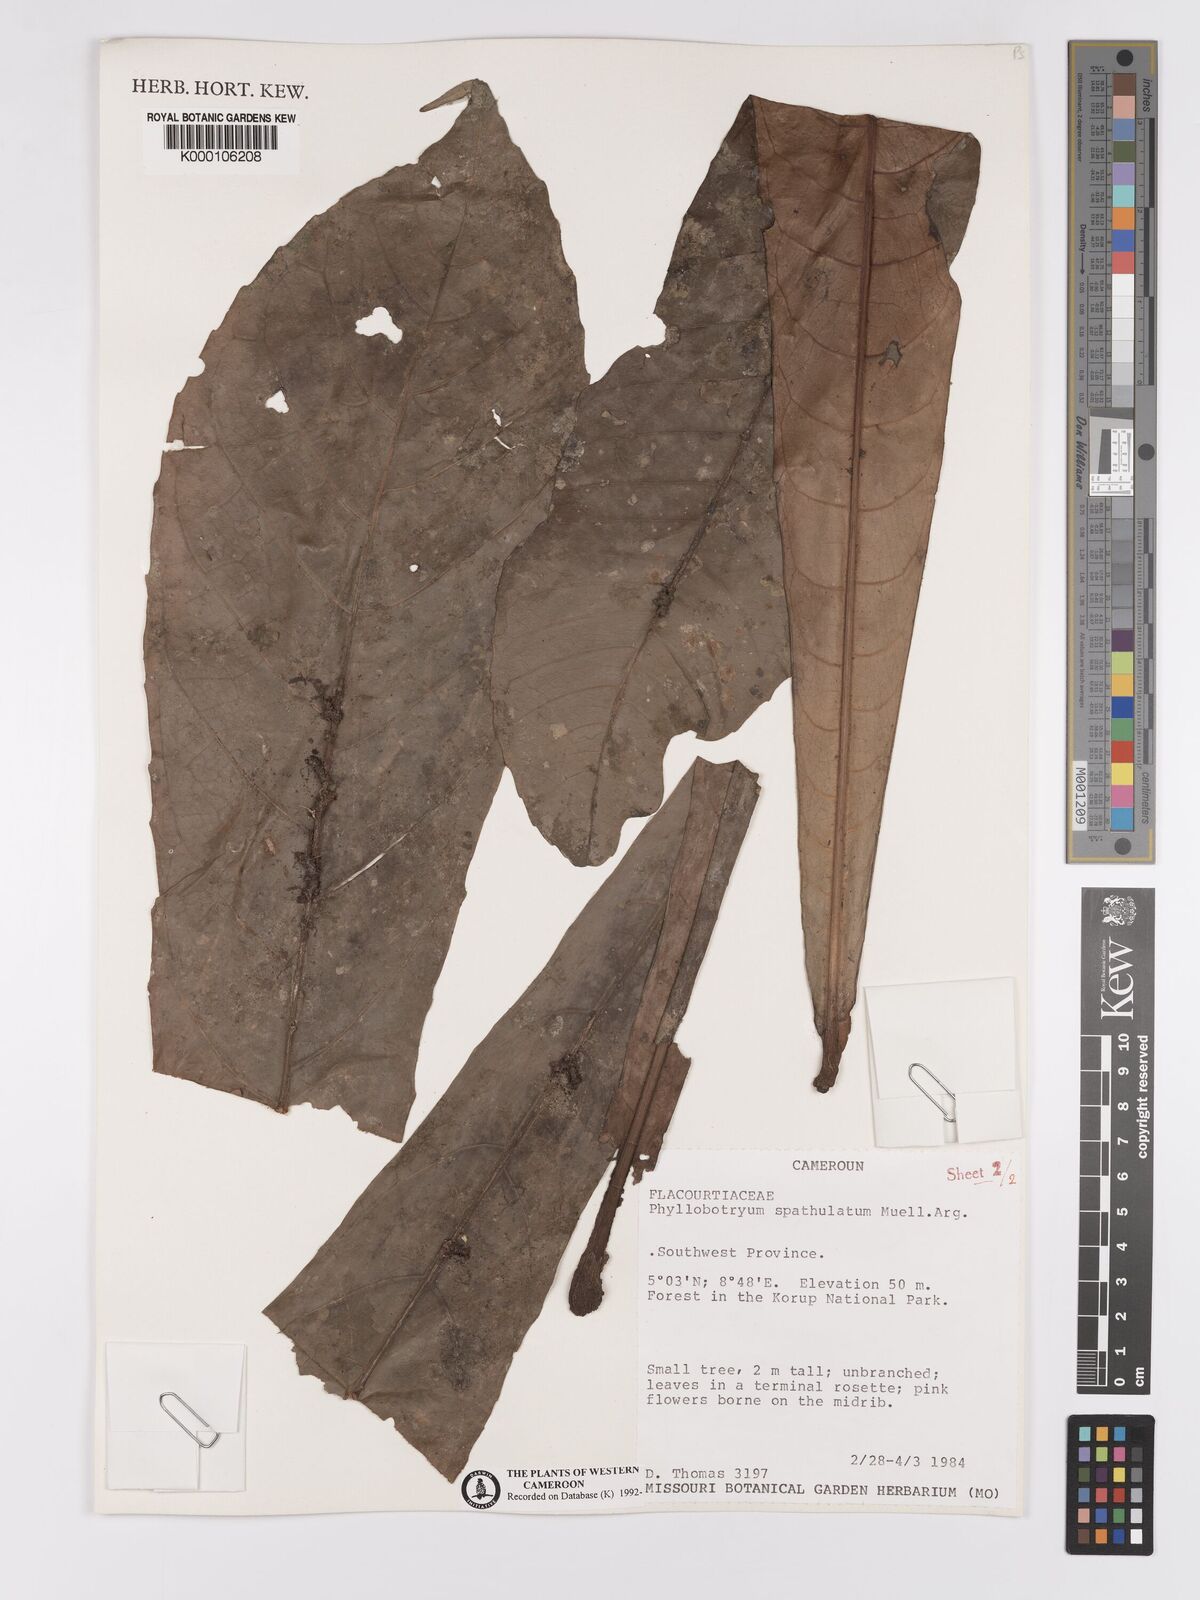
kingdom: Plantae
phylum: Tracheophyta
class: Magnoliopsida
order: Malpighiales
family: Salicaceae
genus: Phyllobotryon
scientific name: Phyllobotryon
